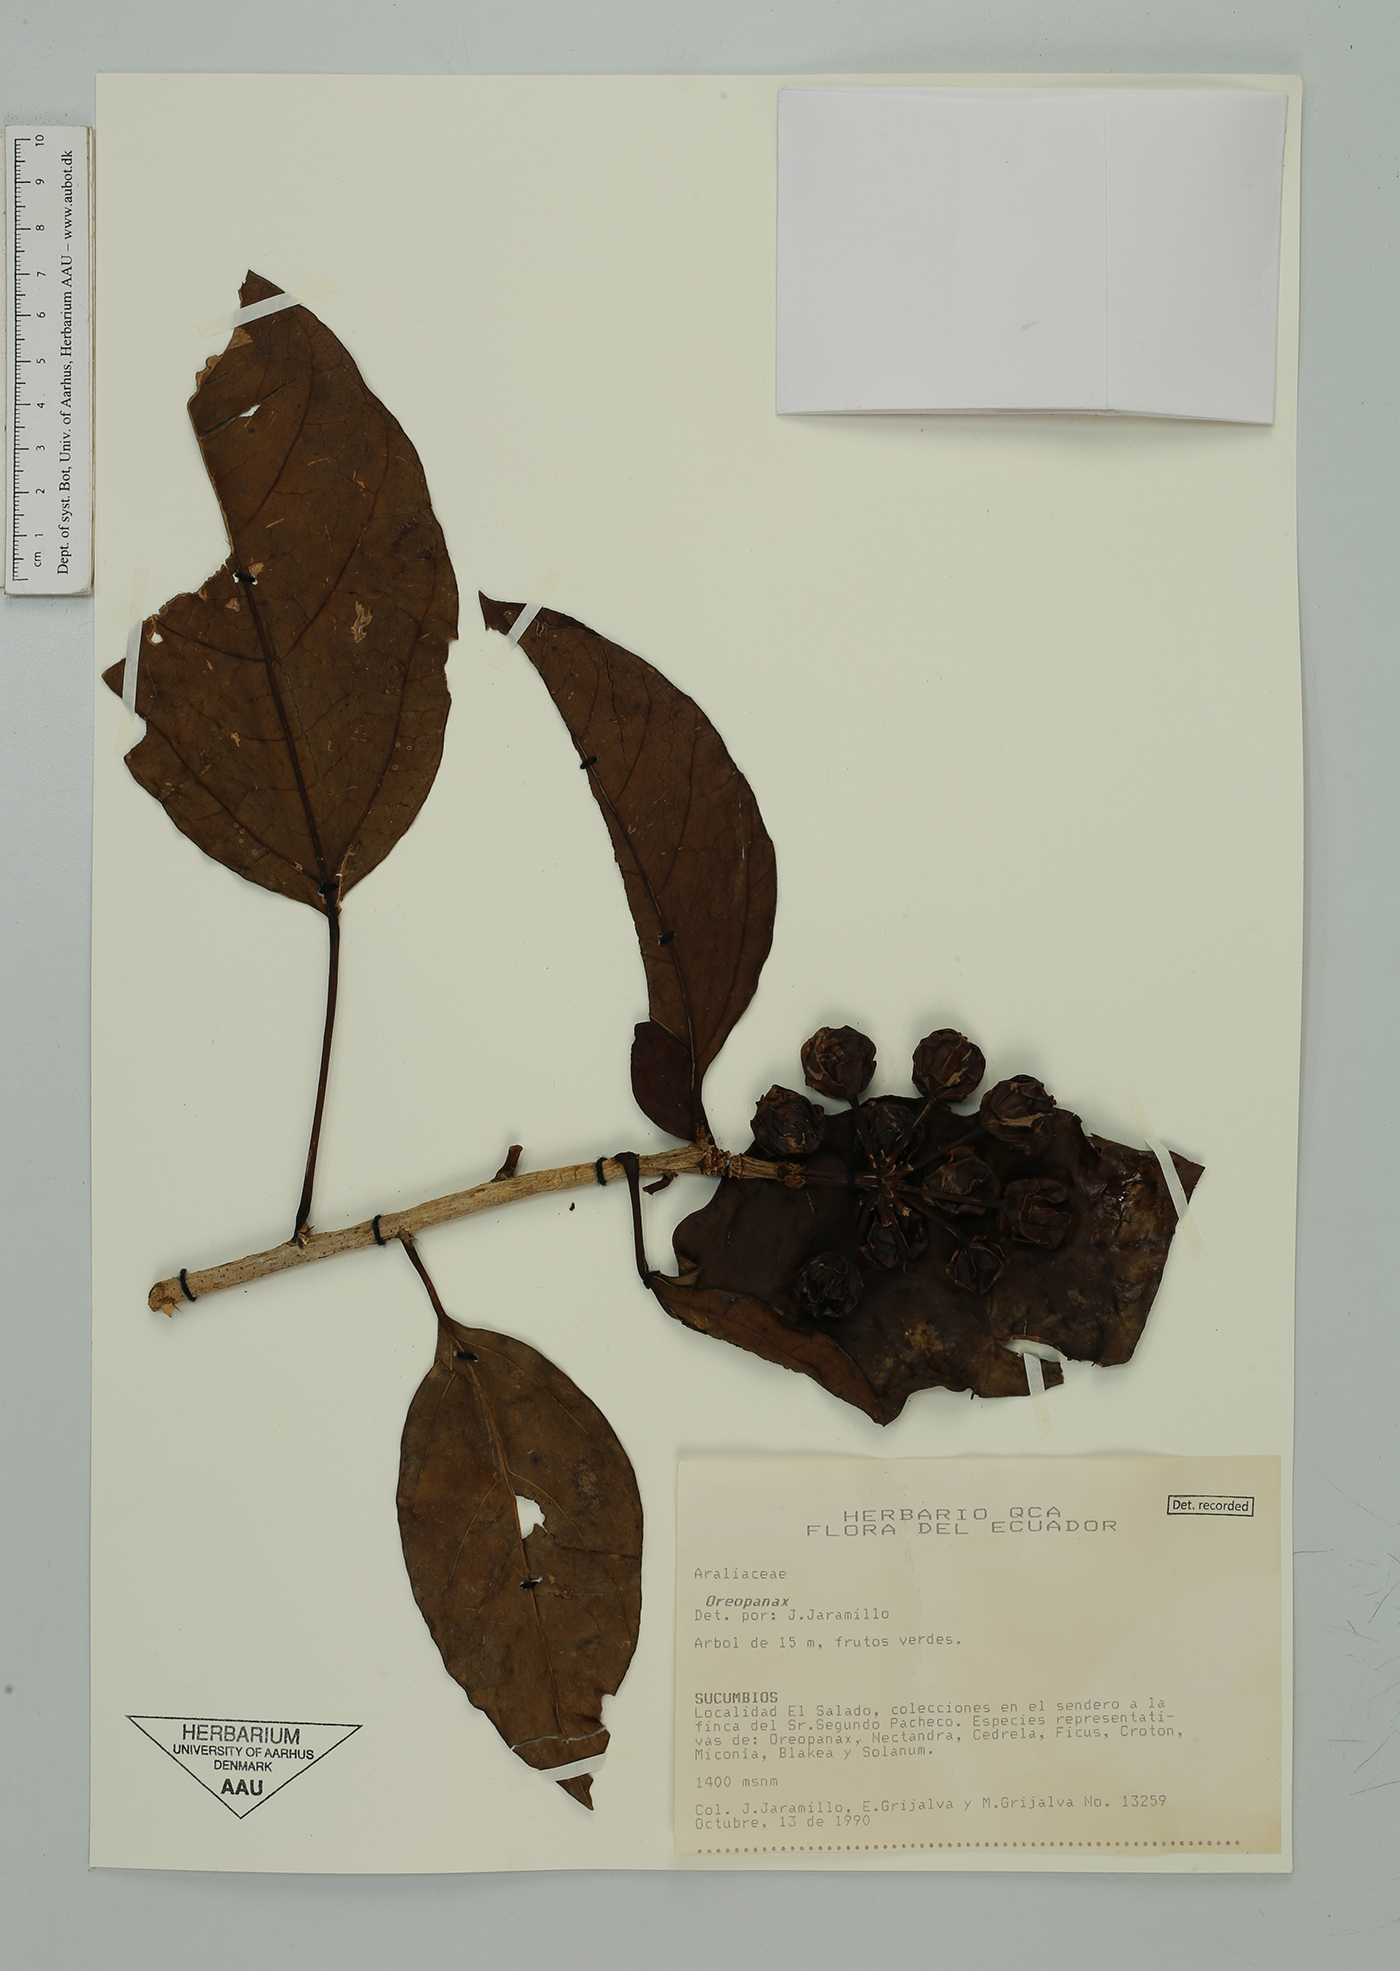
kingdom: Plantae
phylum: Tracheophyta
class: Magnoliopsida
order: Apiales
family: Araliaceae
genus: Oreopanax
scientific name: Oreopanax
